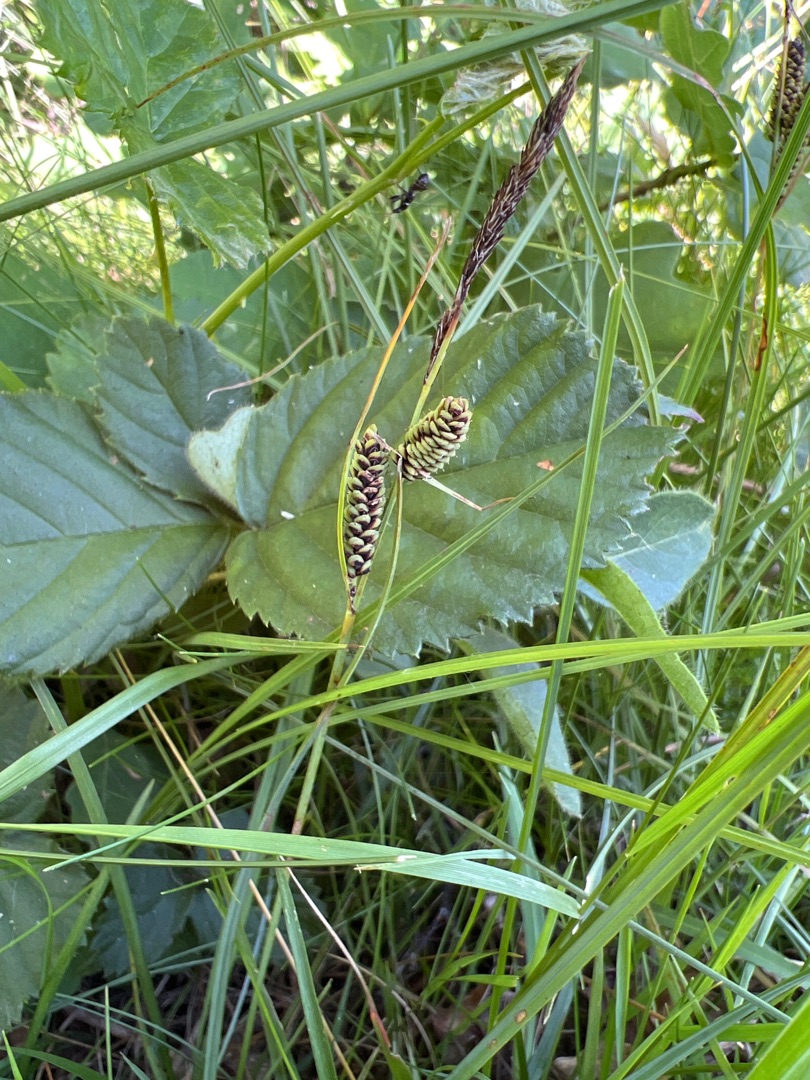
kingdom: Plantae
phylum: Tracheophyta
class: Liliopsida
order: Poales
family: Cyperaceae
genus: Carex
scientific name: Carex nigra
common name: Almindelig star (varietet)
